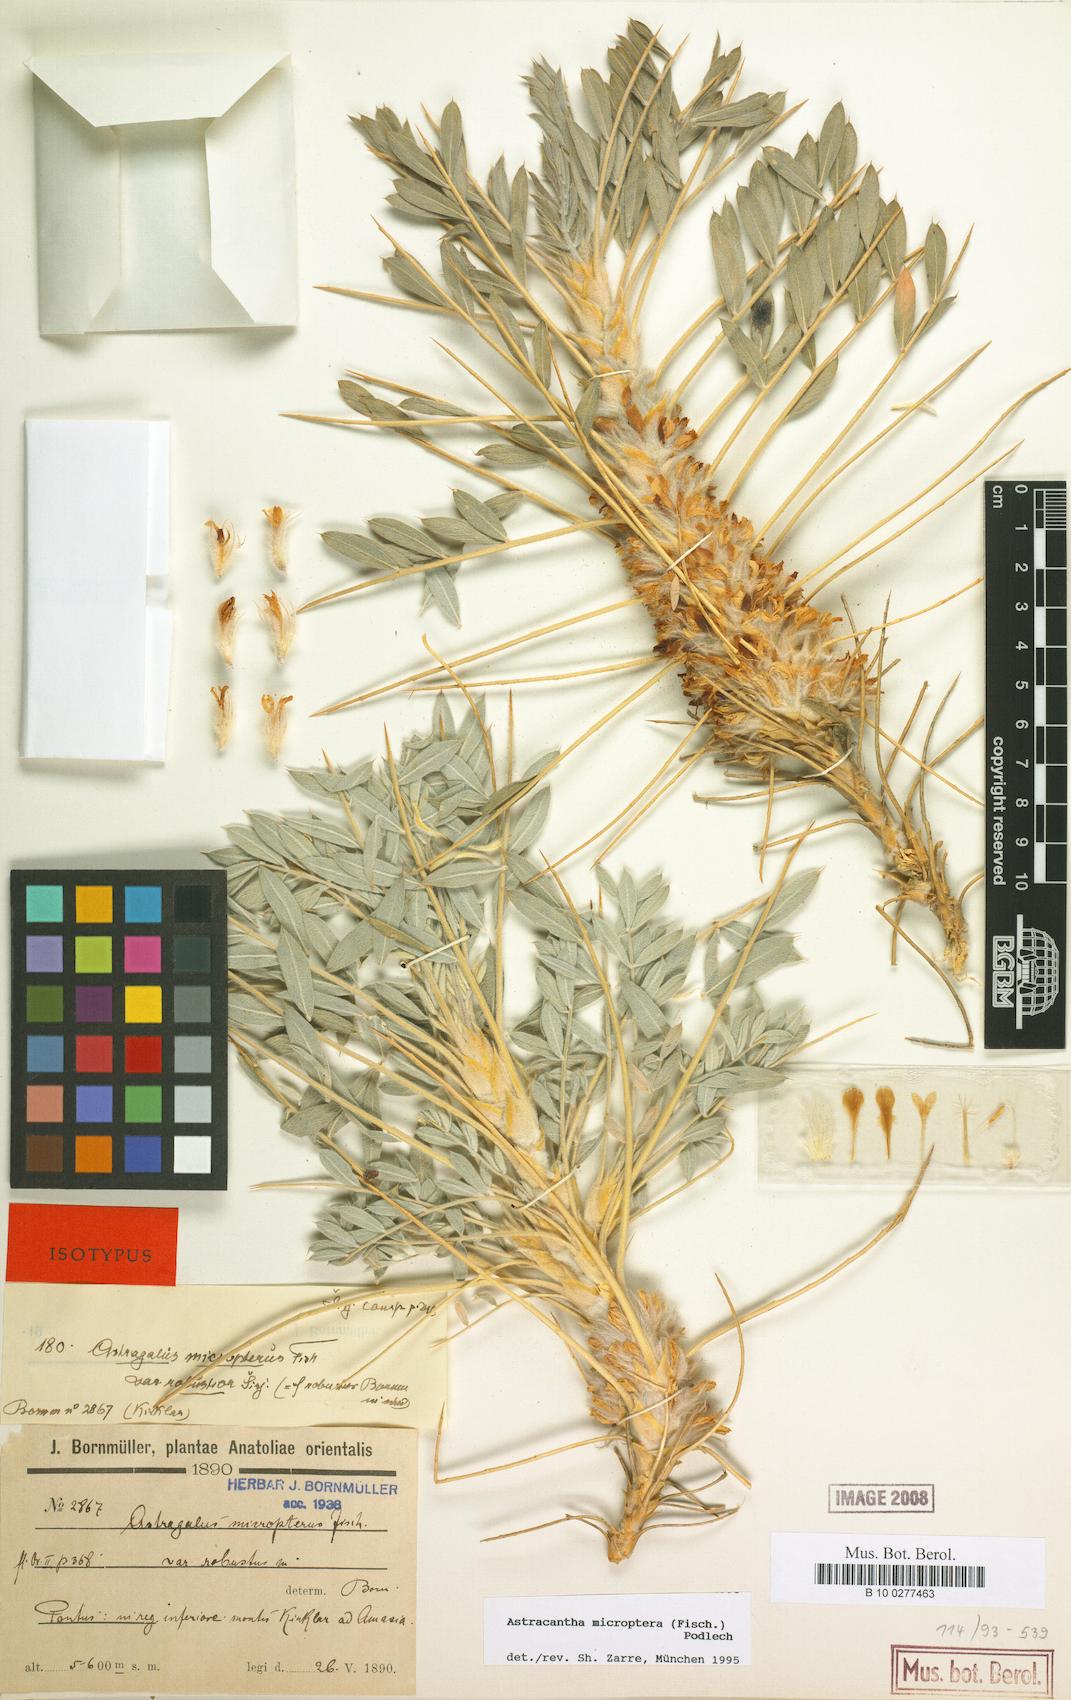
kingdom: Plantae
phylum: Tracheophyta
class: Magnoliopsida
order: Fabales
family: Fabaceae
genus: Astragalus
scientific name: Astragalus micropterus
